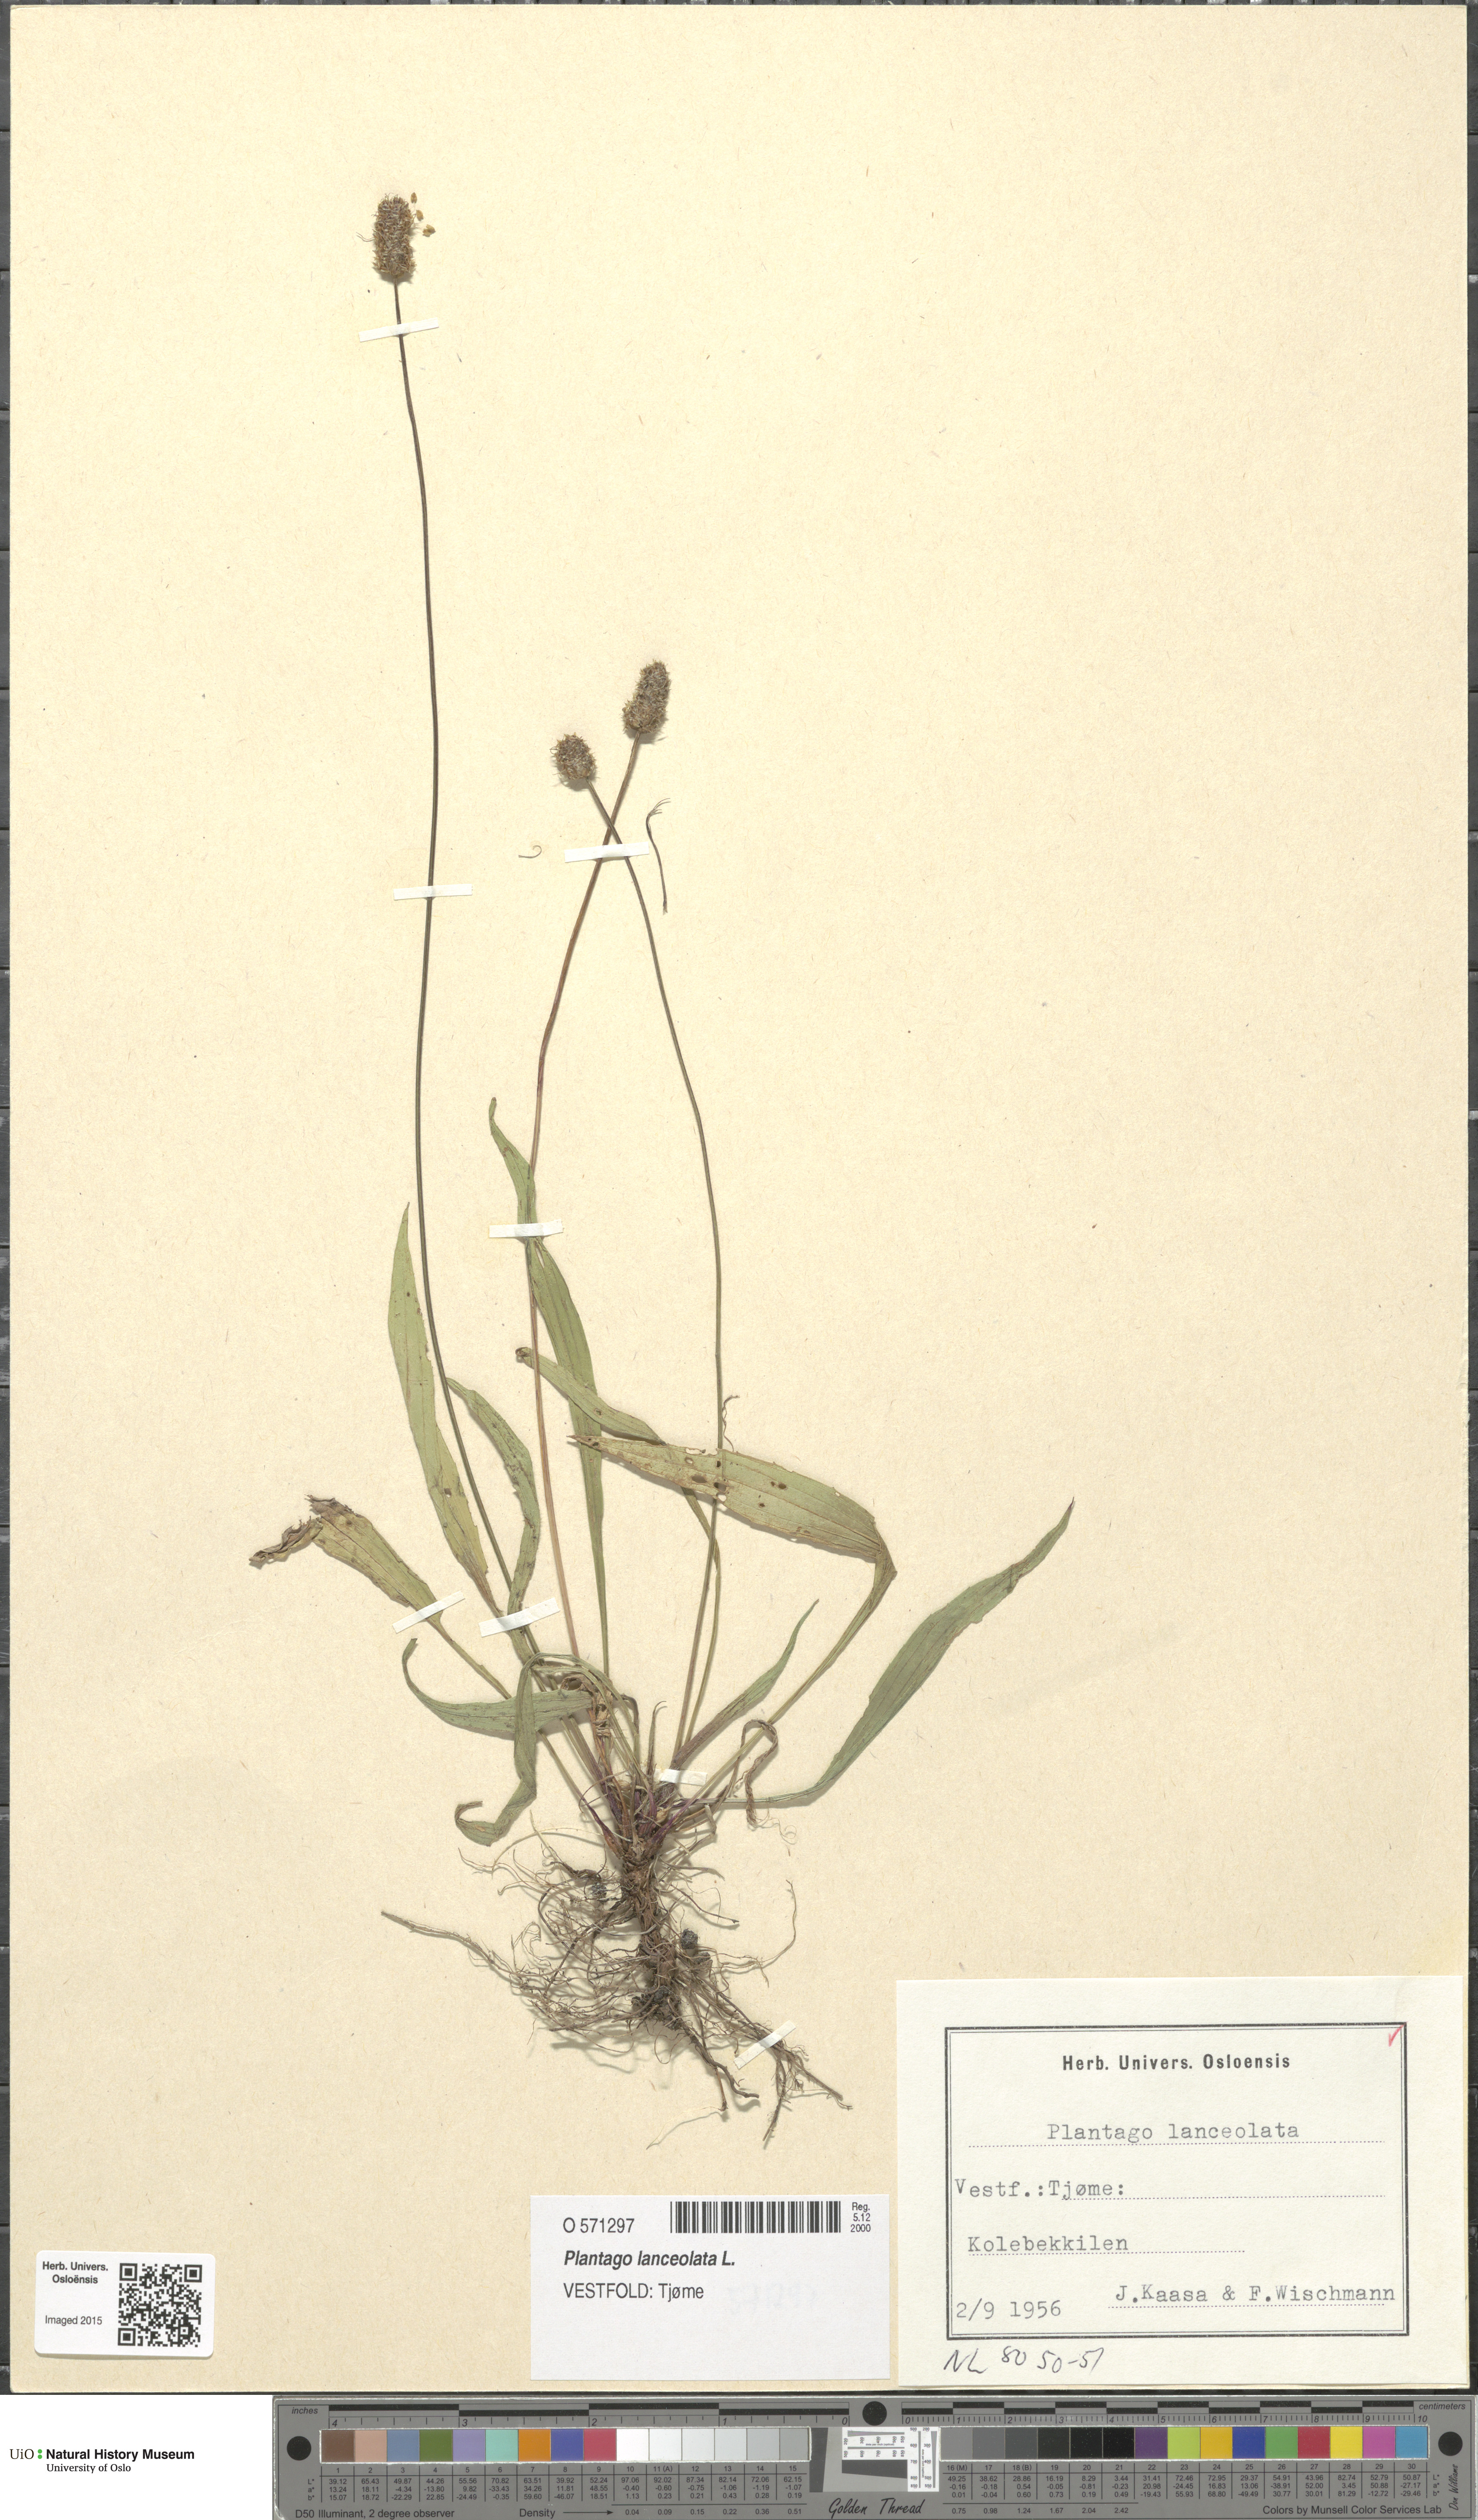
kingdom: Plantae
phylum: Tracheophyta
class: Magnoliopsida
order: Lamiales
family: Plantaginaceae
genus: Plantago
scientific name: Plantago lanceolata
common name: Ribwort plantain
